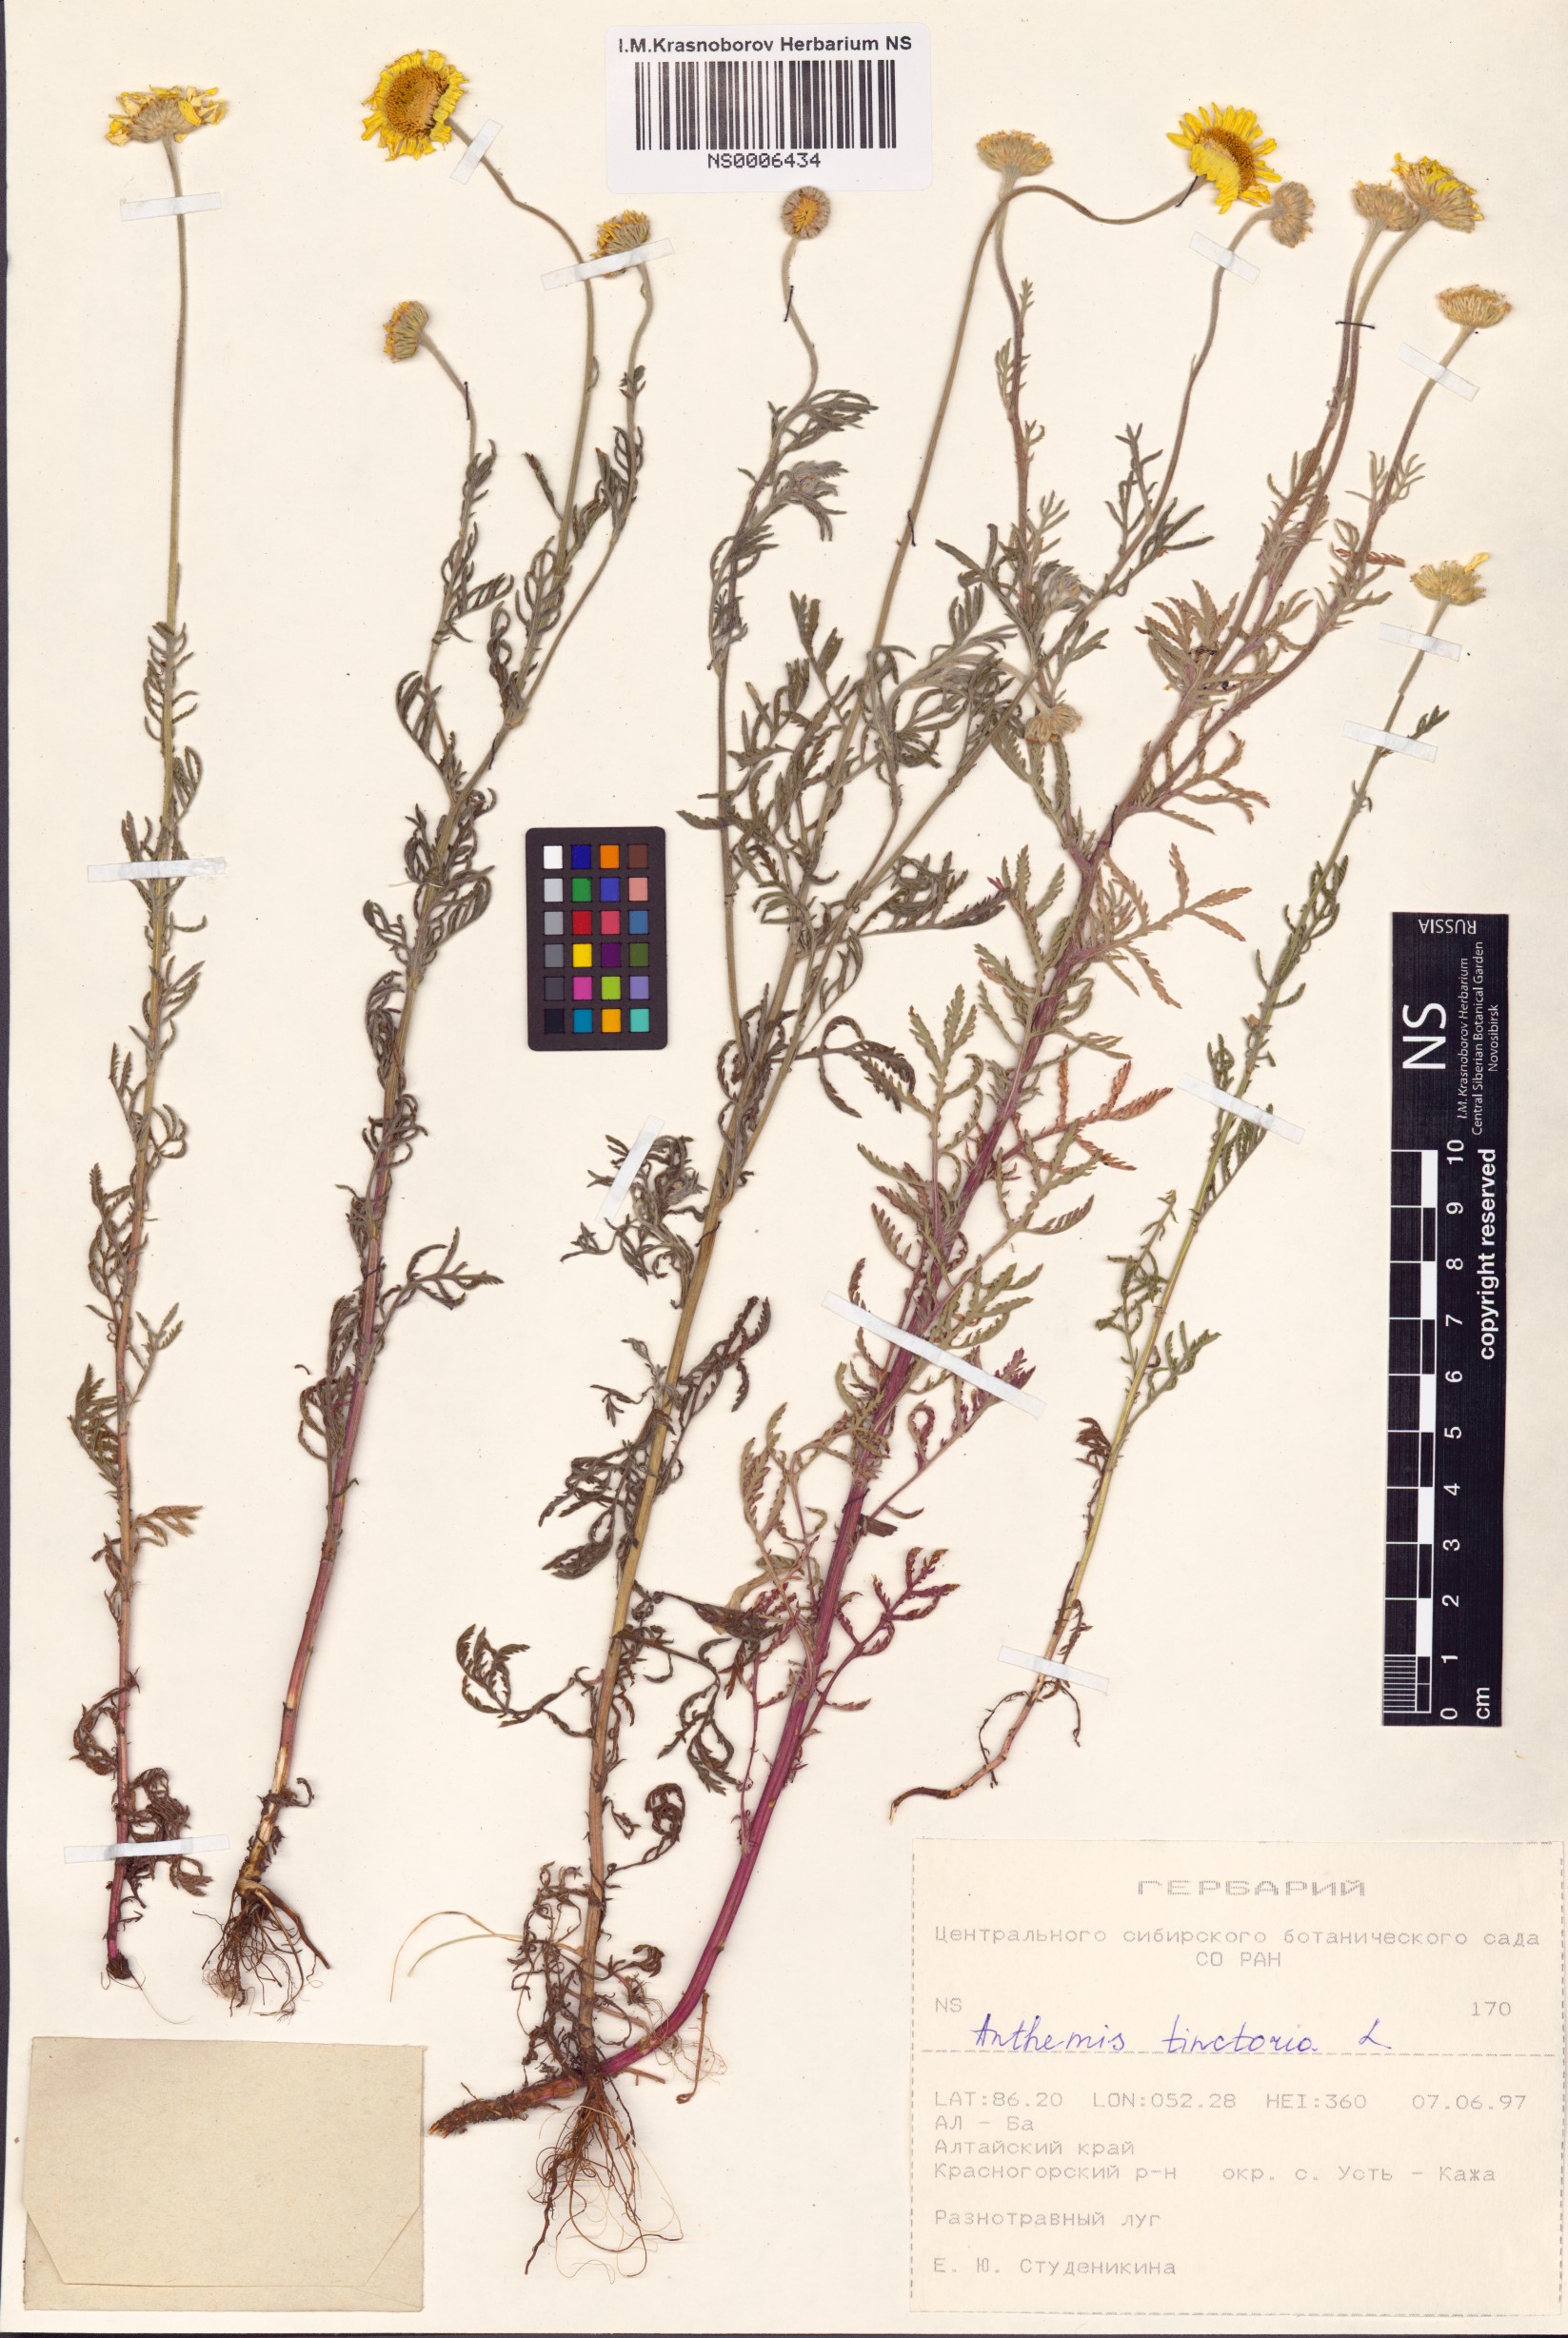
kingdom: Plantae
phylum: Tracheophyta
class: Magnoliopsida
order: Asterales
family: Asteraceae
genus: Cota
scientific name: Cota tinctoria
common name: Golden chamomile
